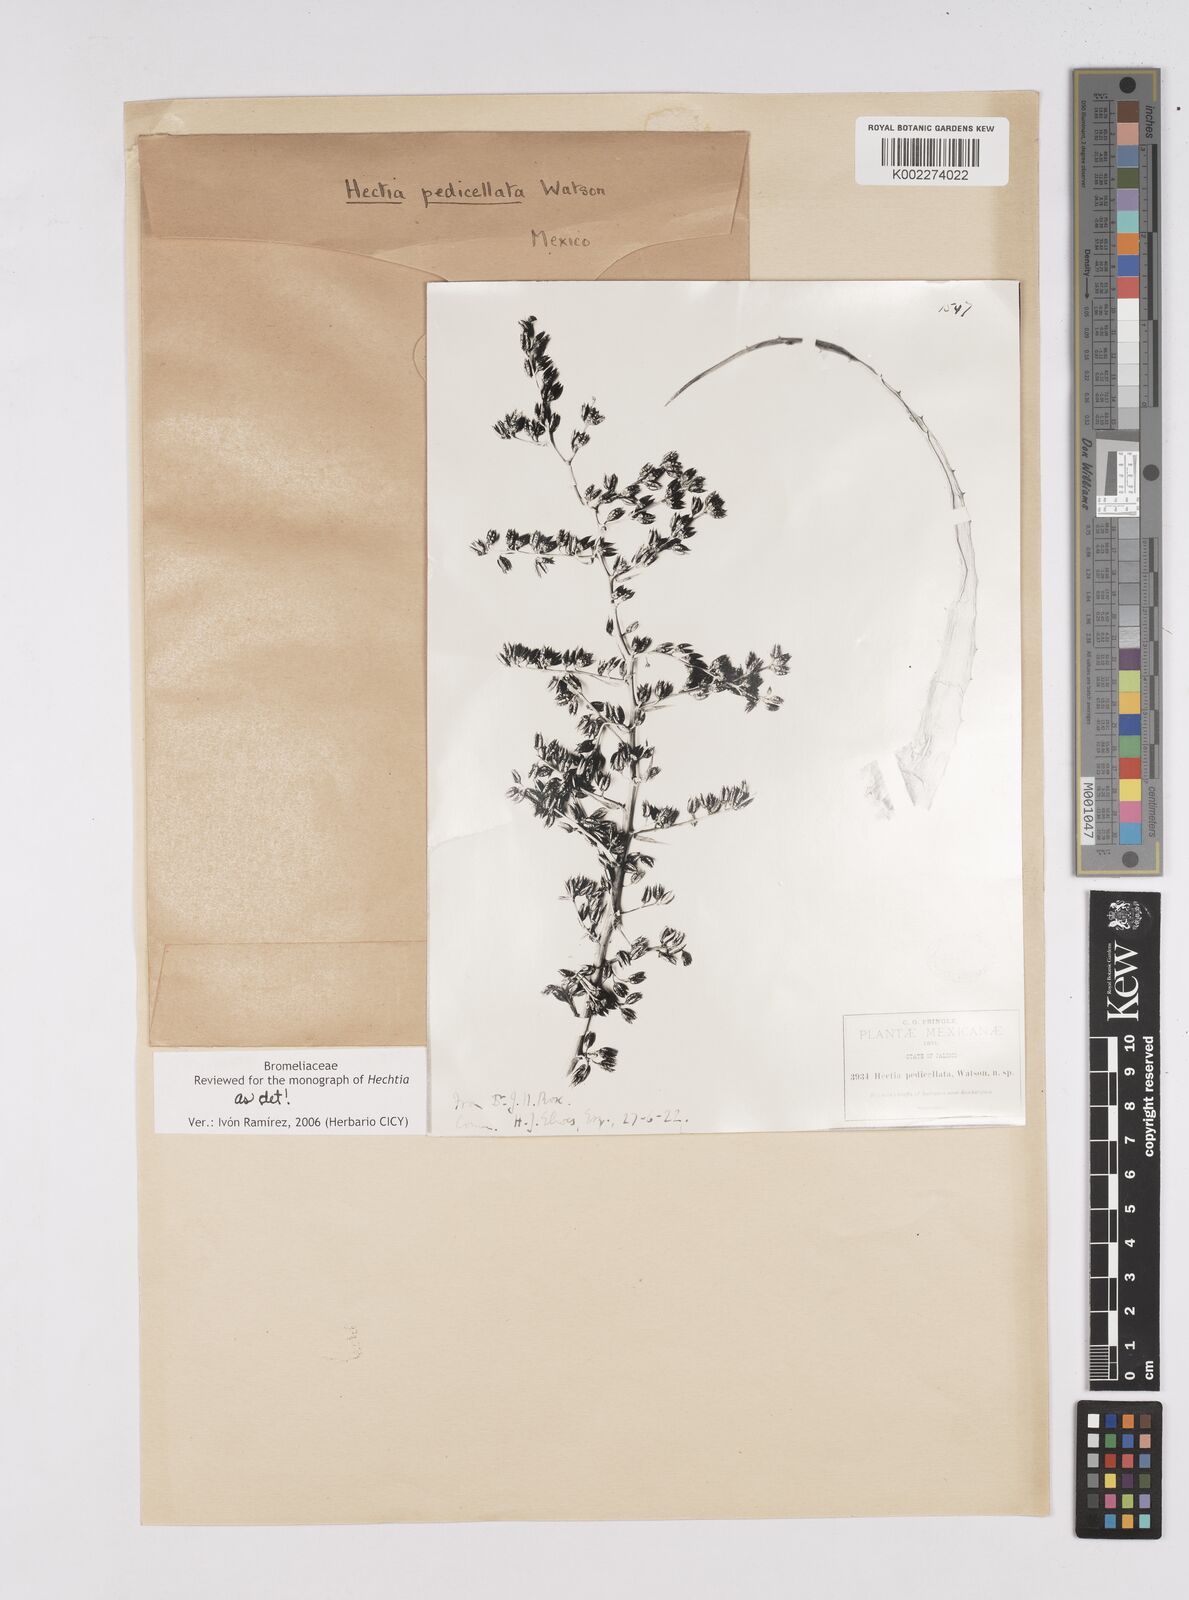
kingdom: Plantae
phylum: Tracheophyta
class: Liliopsida
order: Poales
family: Bromeliaceae
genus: Hechtia
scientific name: Hechtia pedicellata
